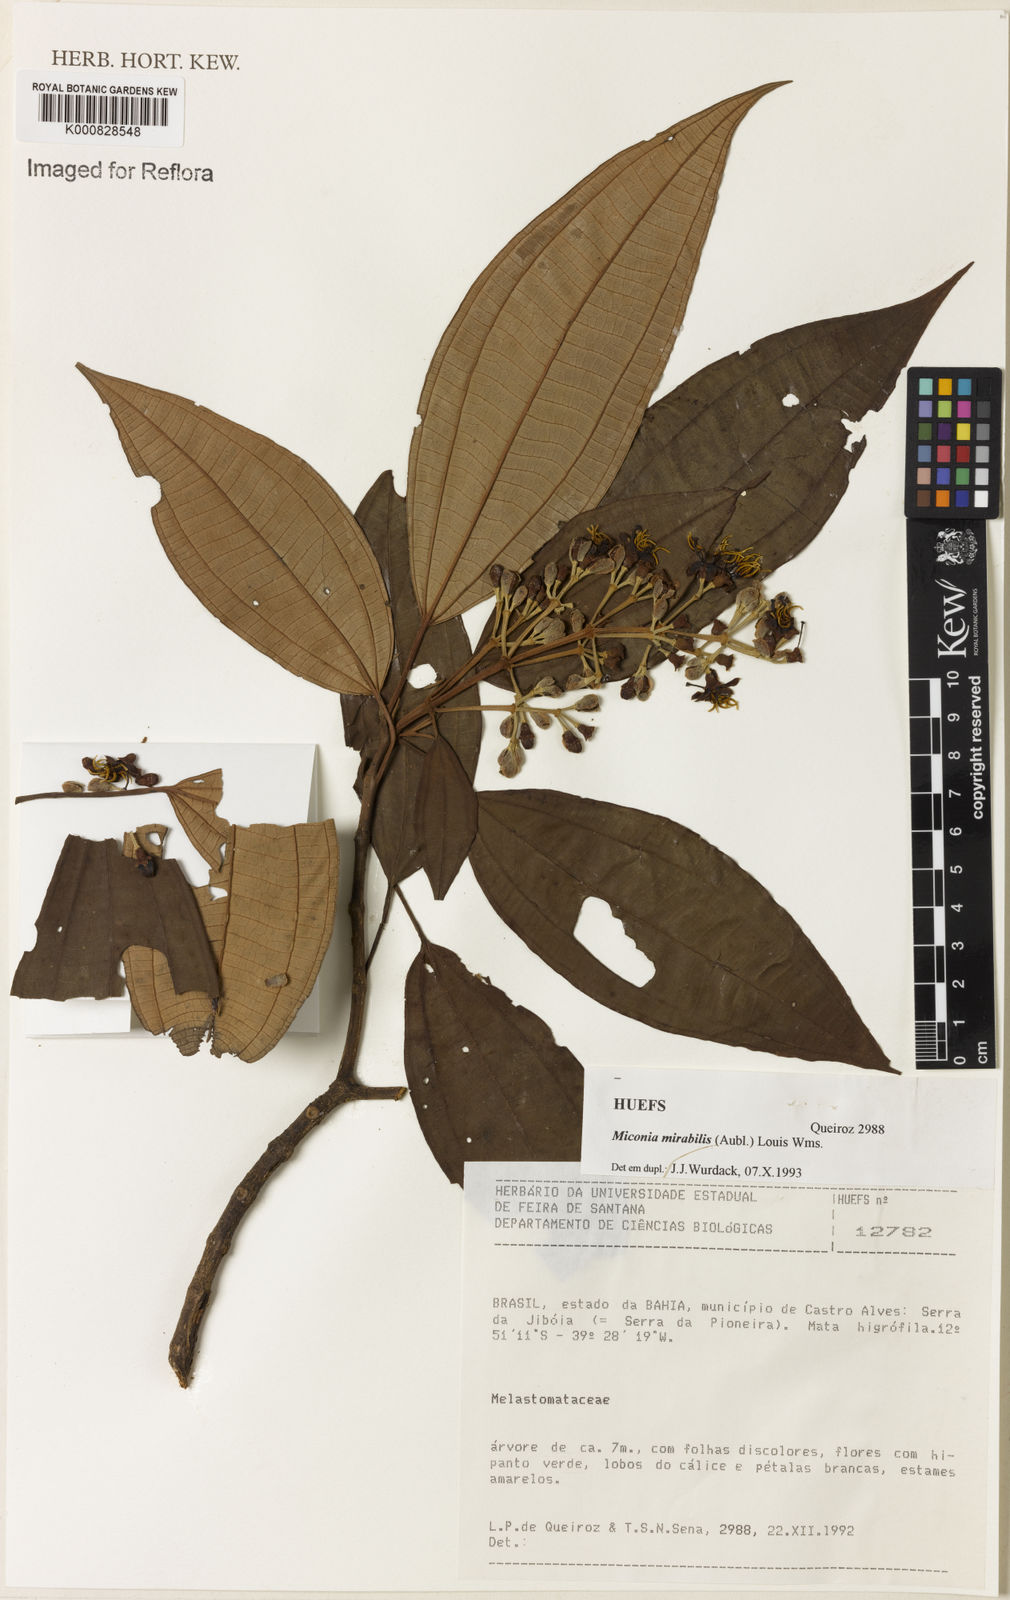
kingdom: Plantae
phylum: Tracheophyta
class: Magnoliopsida
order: Myrtales
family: Melastomataceae
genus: Miconia
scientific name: Miconia mirabilis
